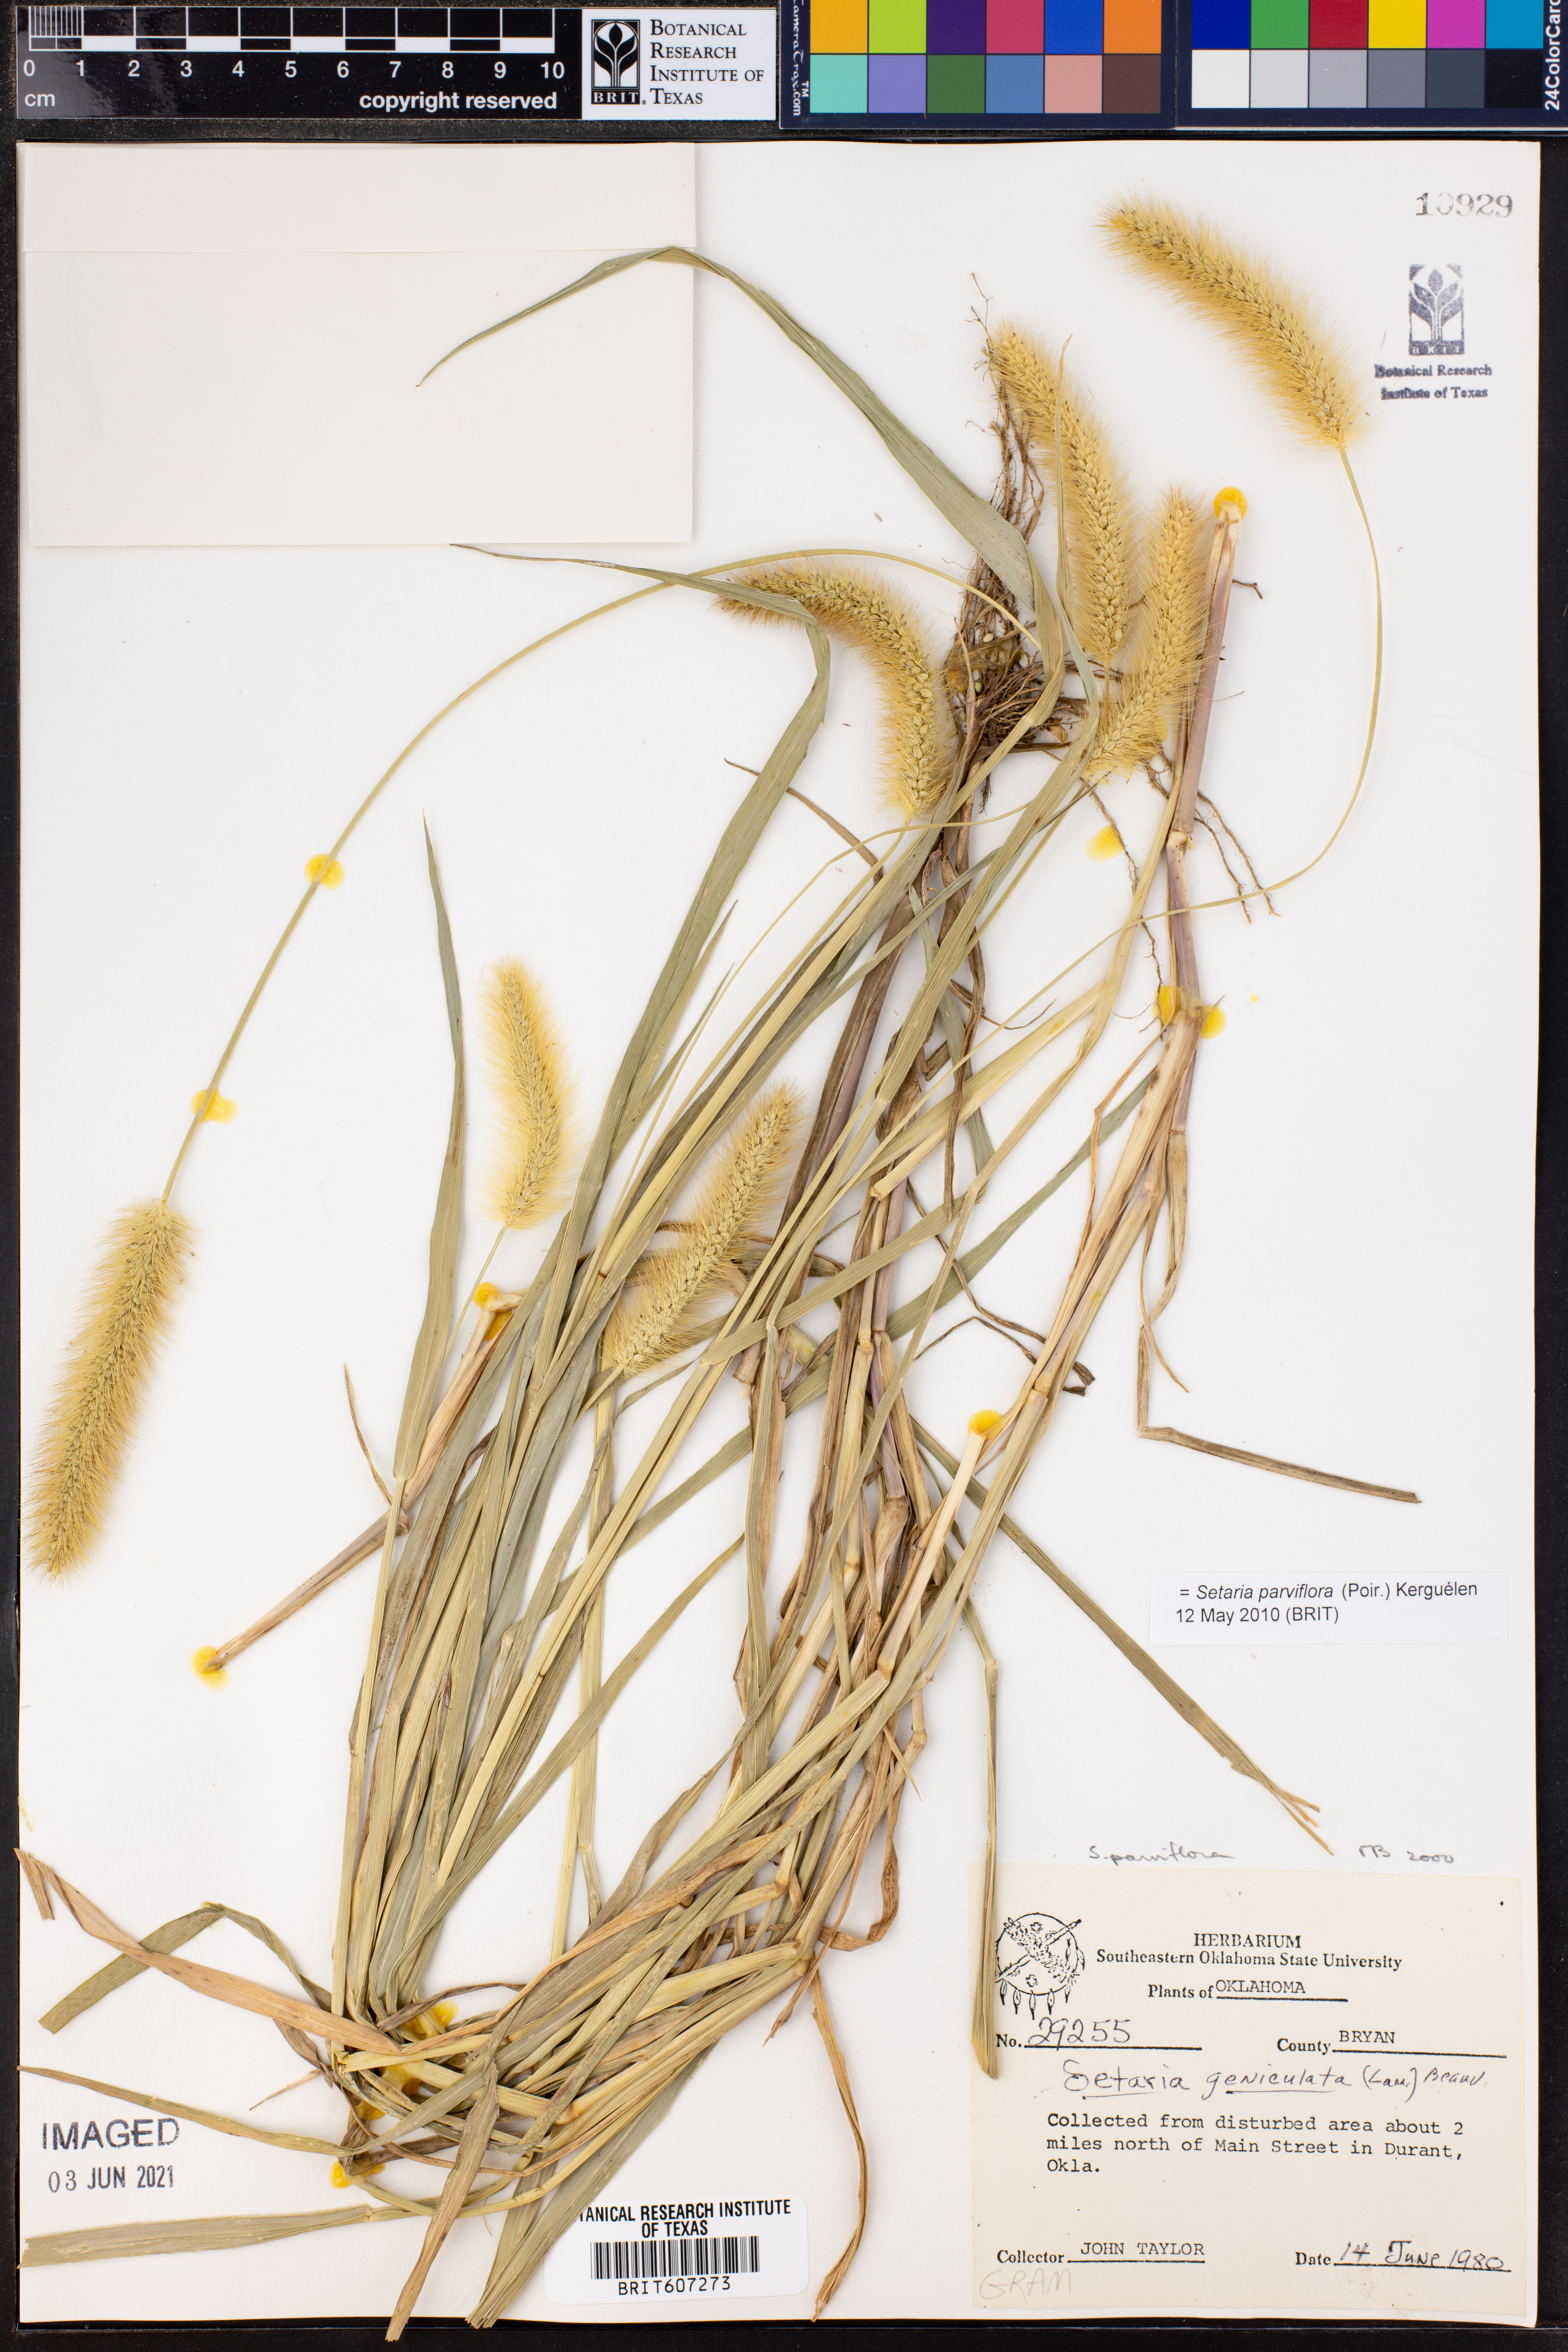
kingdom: Plantae
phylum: Tracheophyta
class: Liliopsida
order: Poales
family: Poaceae
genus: Setaria
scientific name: Setaria parviflora
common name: Knotroot bristle-grass
